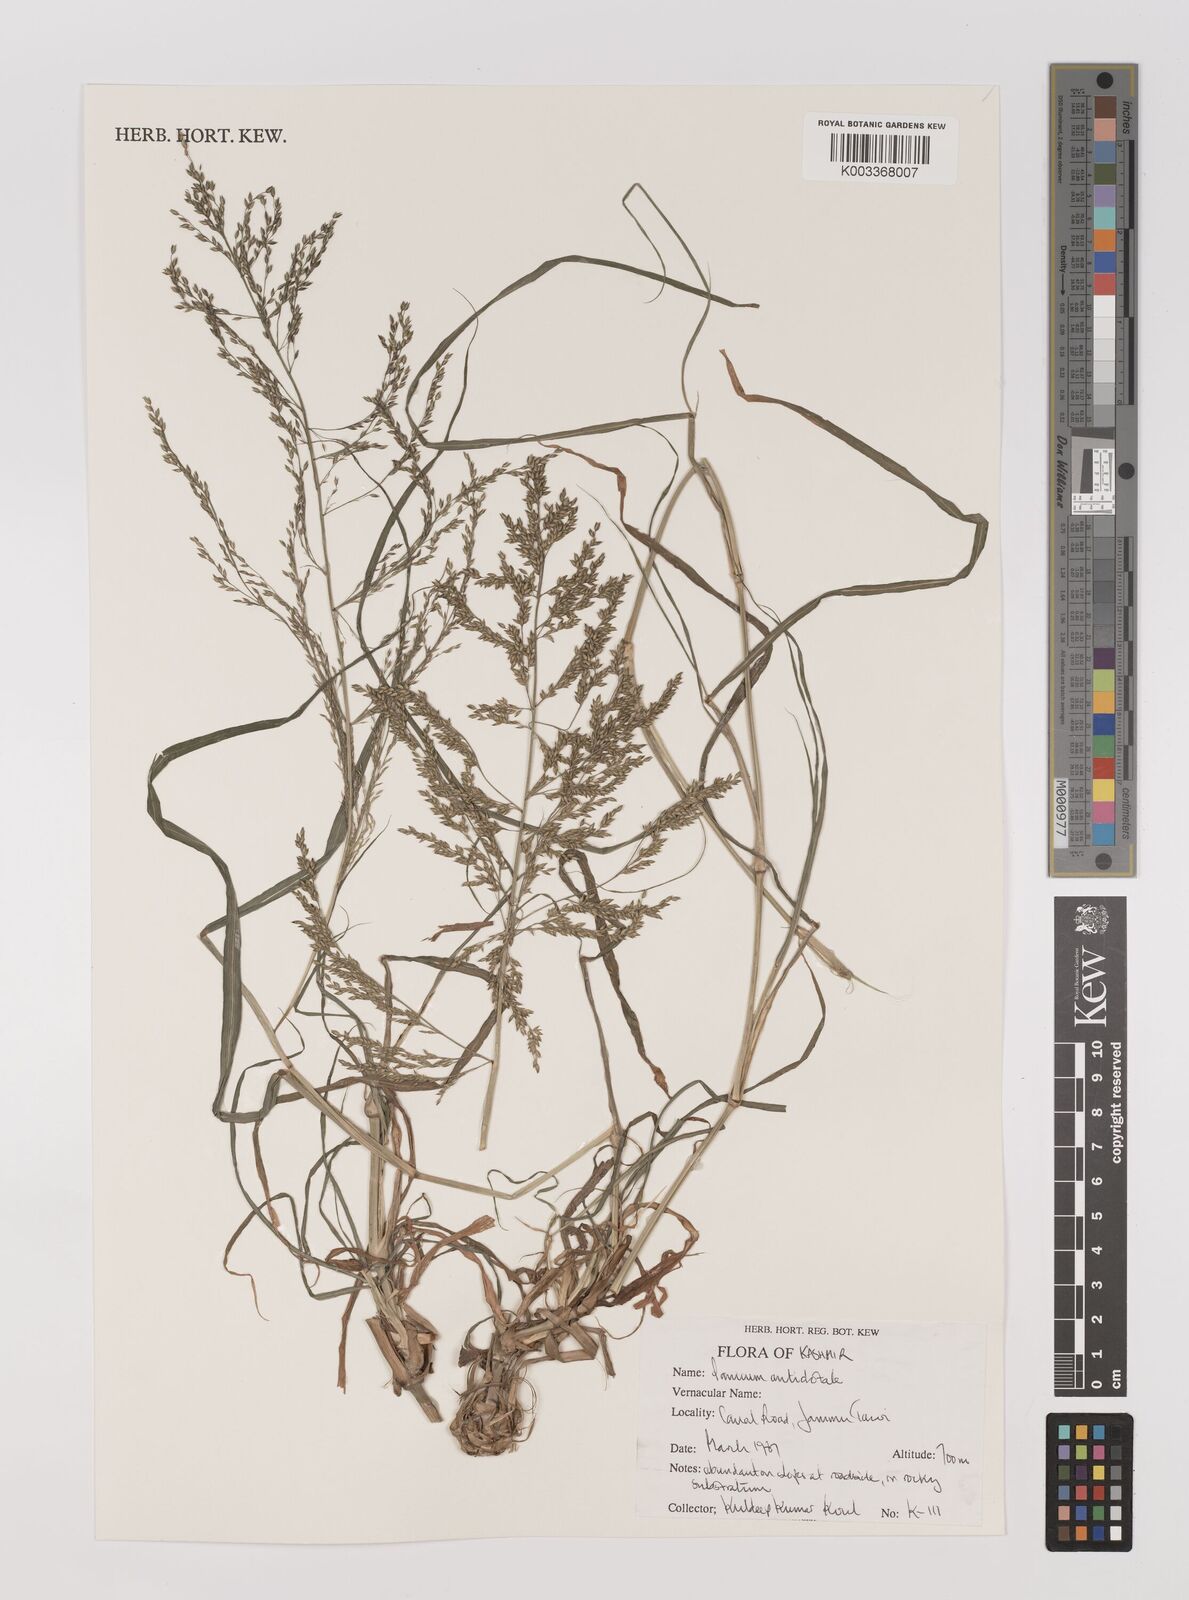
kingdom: Plantae
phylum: Tracheophyta
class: Liliopsida
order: Poales
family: Poaceae
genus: Panicum
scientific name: Panicum antidotale
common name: Blue panicum
